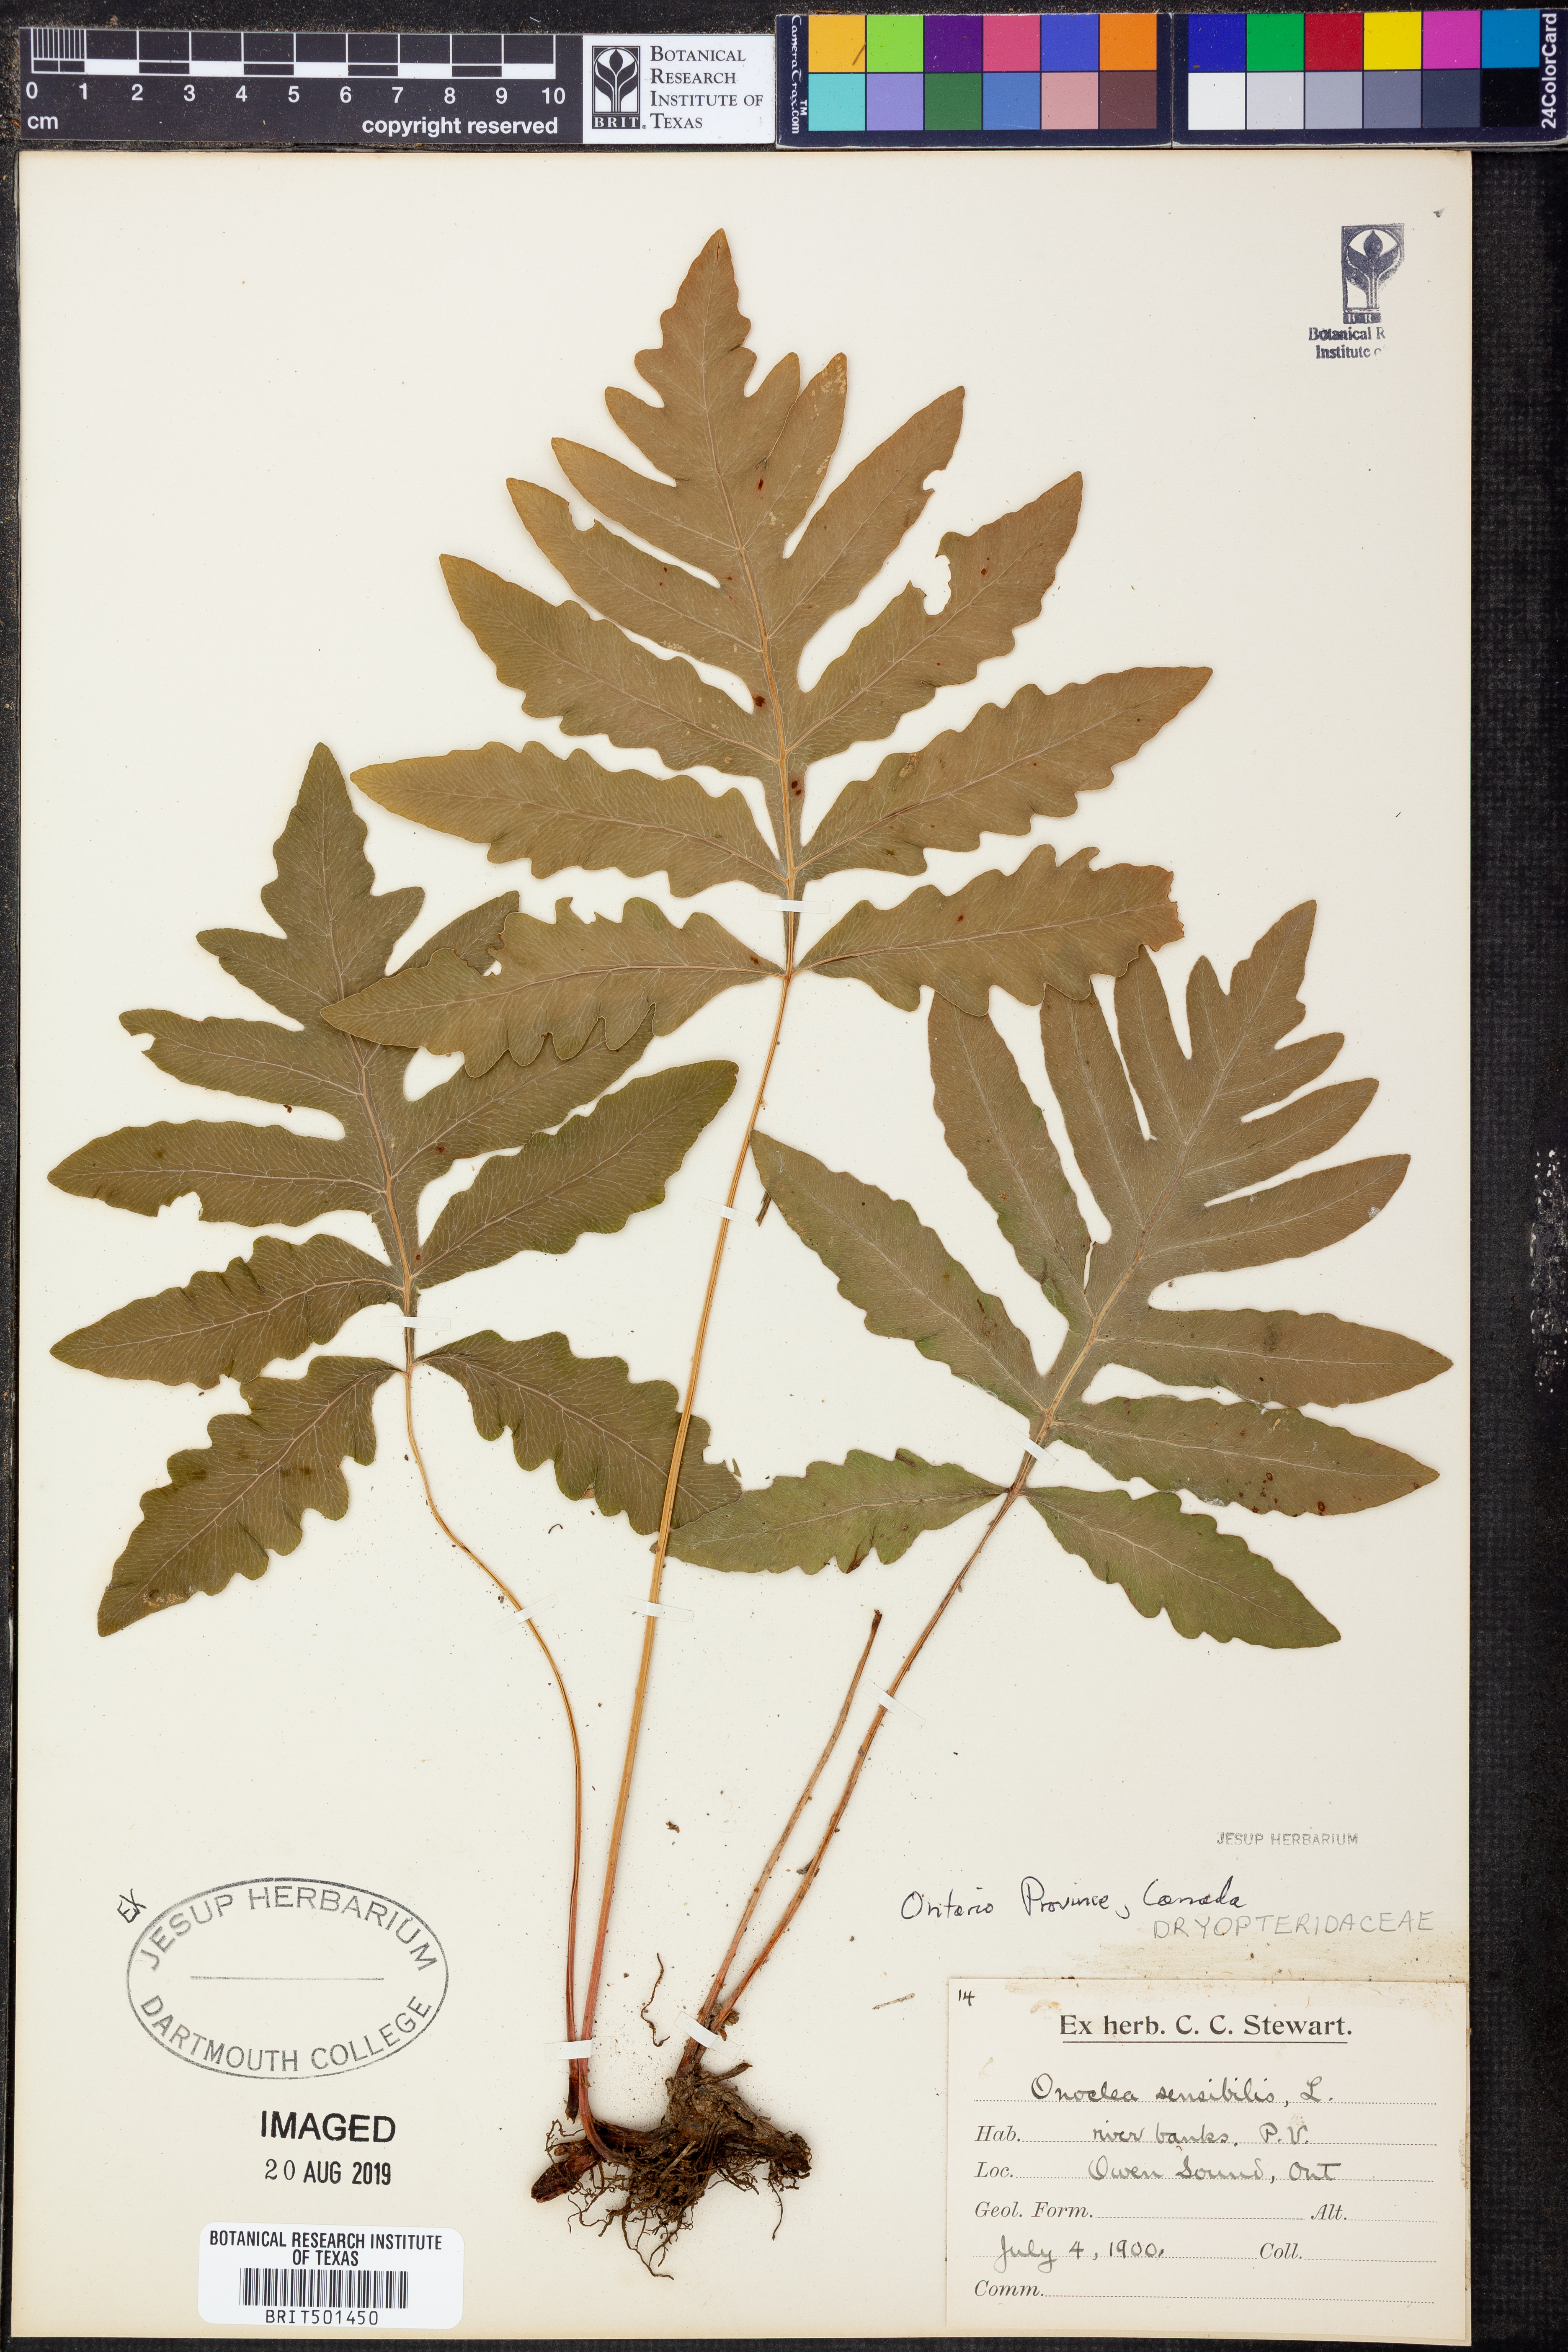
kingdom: Plantae
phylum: Tracheophyta
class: Polypodiopsida
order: Polypodiales
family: Onocleaceae
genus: Onoclea
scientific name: Onoclea sensibilis
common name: Sensitive fern
